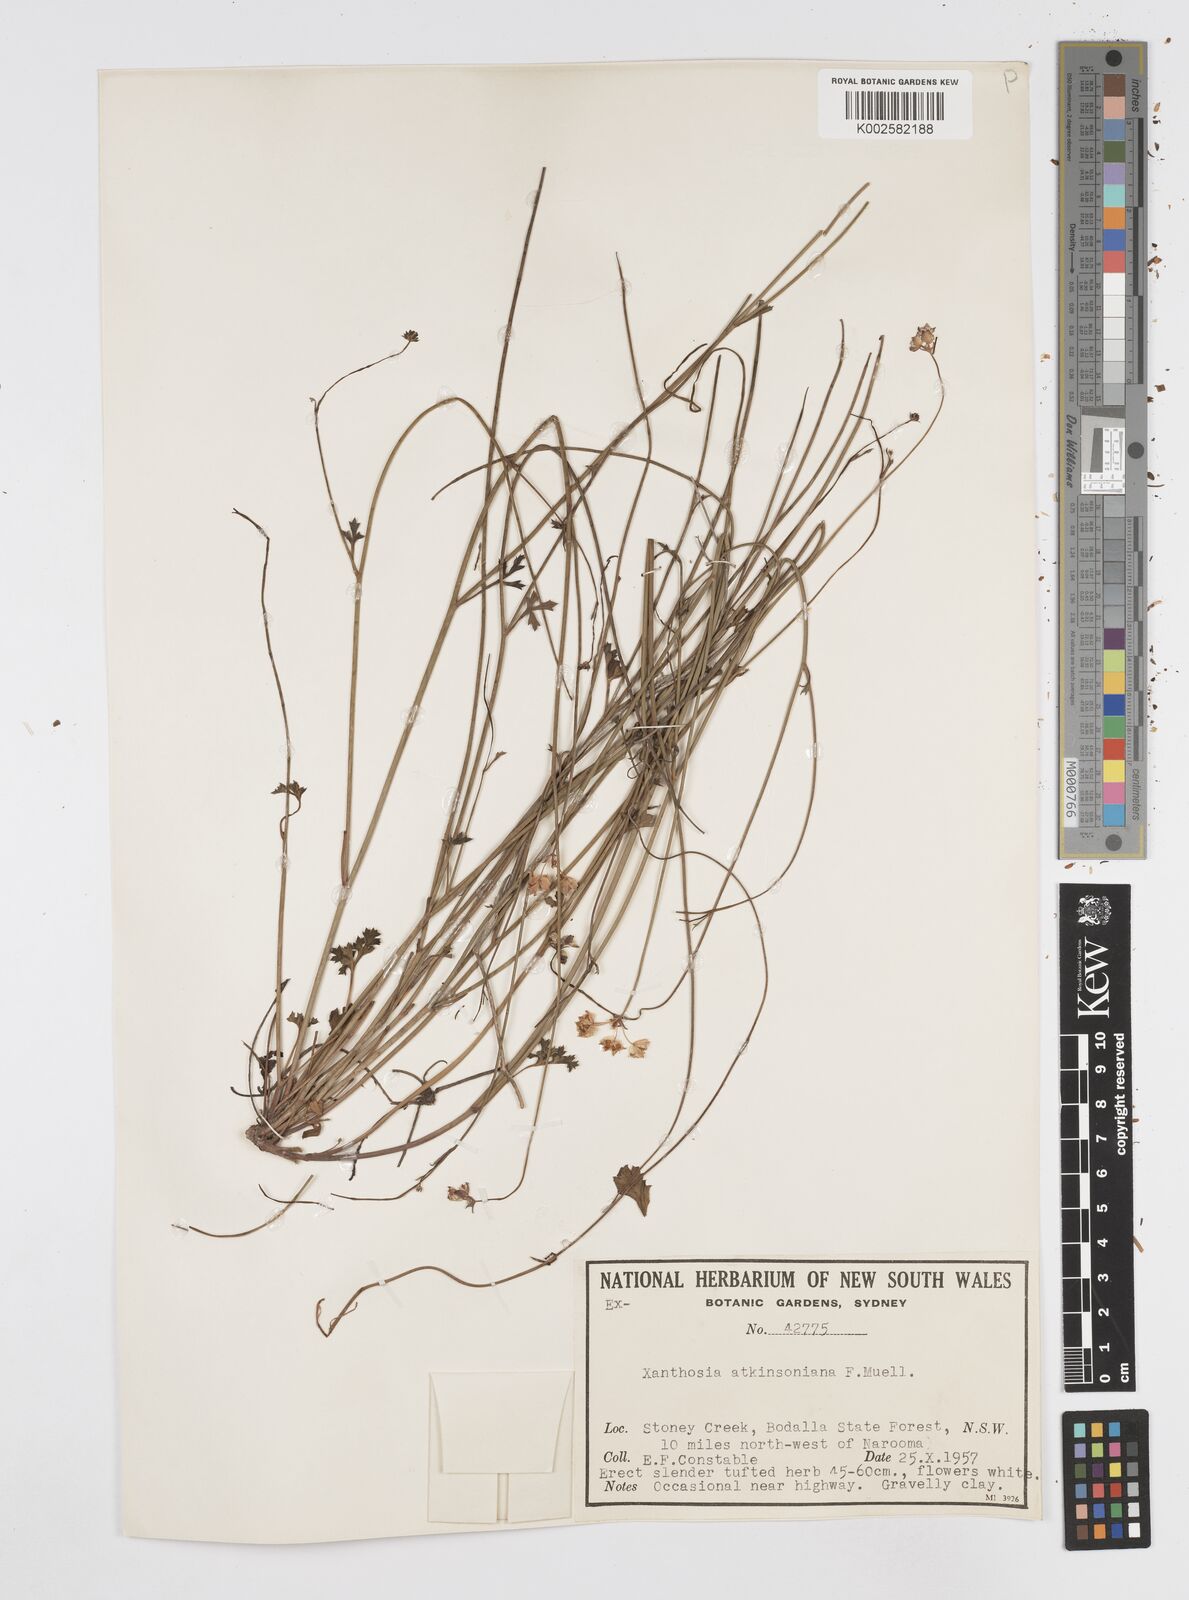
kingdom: Plantae
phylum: Tracheophyta
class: Magnoliopsida
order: Apiales
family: Apiaceae
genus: Xanthosia
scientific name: Xanthosia atkinsoniana
